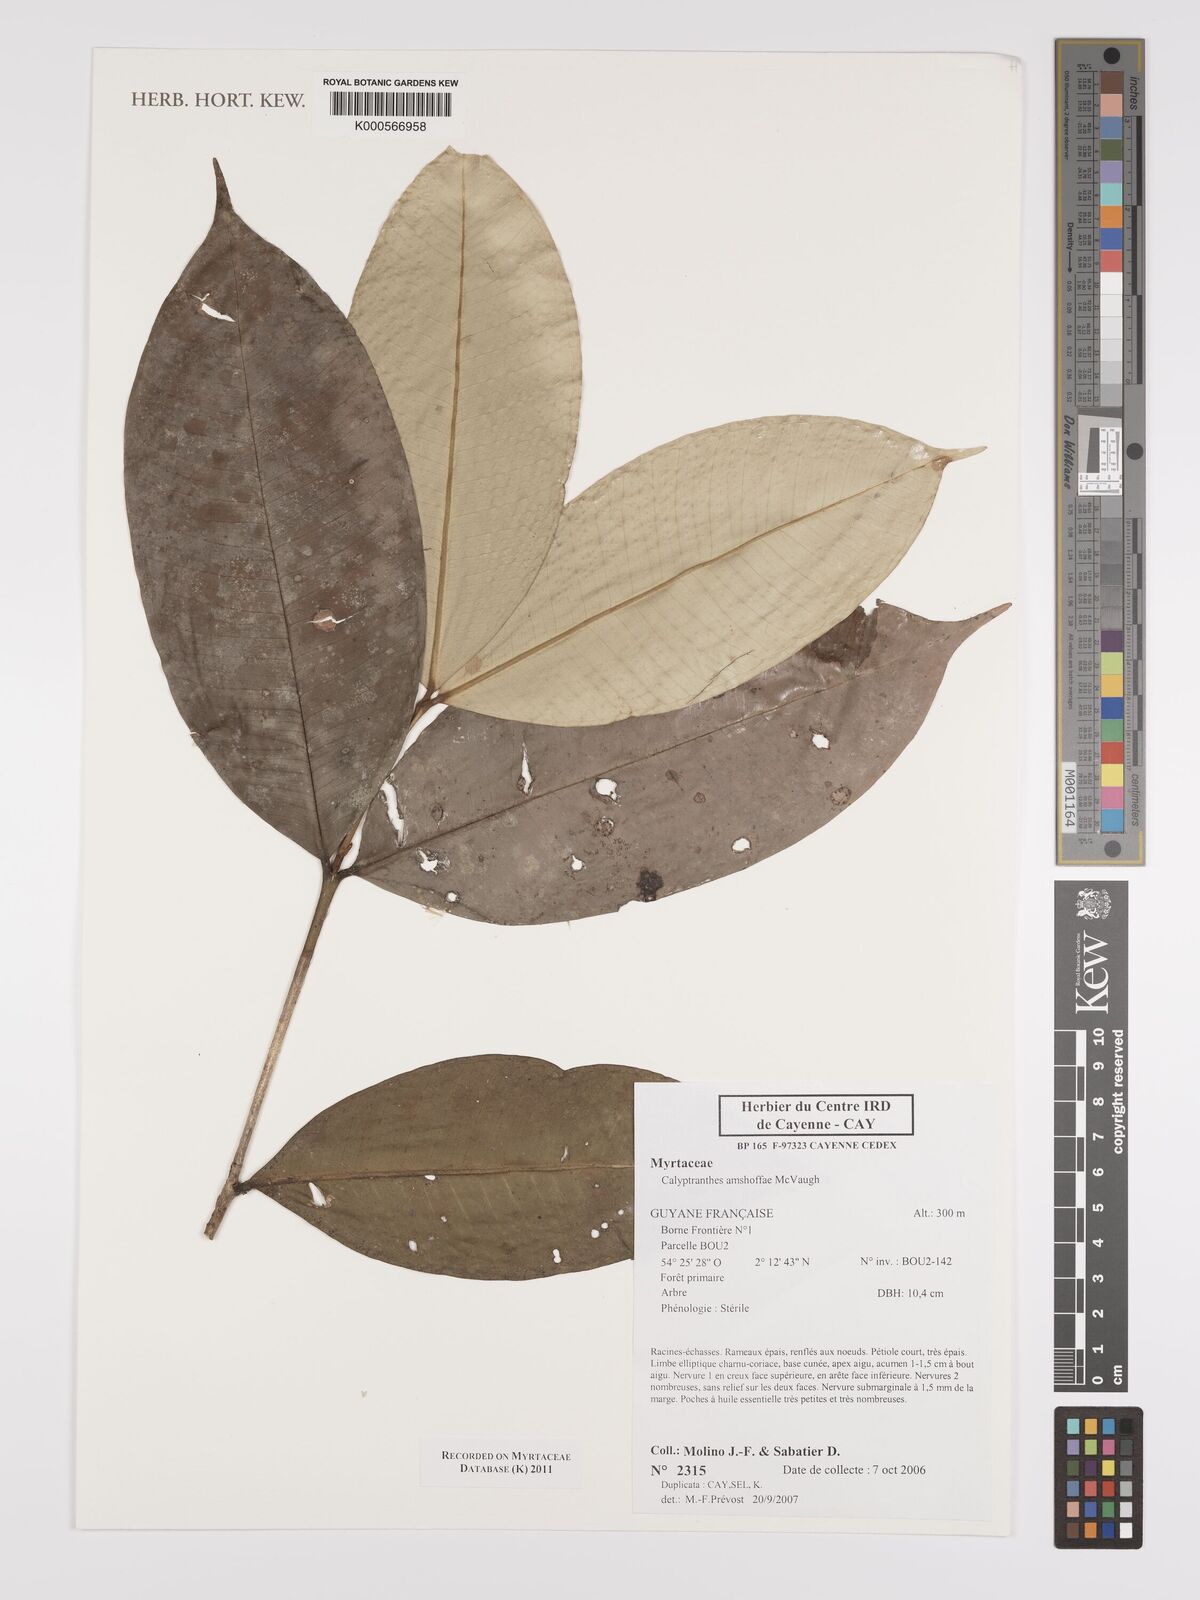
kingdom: Plantae
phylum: Tracheophyta
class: Magnoliopsida
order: Myrtales
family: Myrtaceae
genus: Myrcia
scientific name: Myrcia amshoffae
